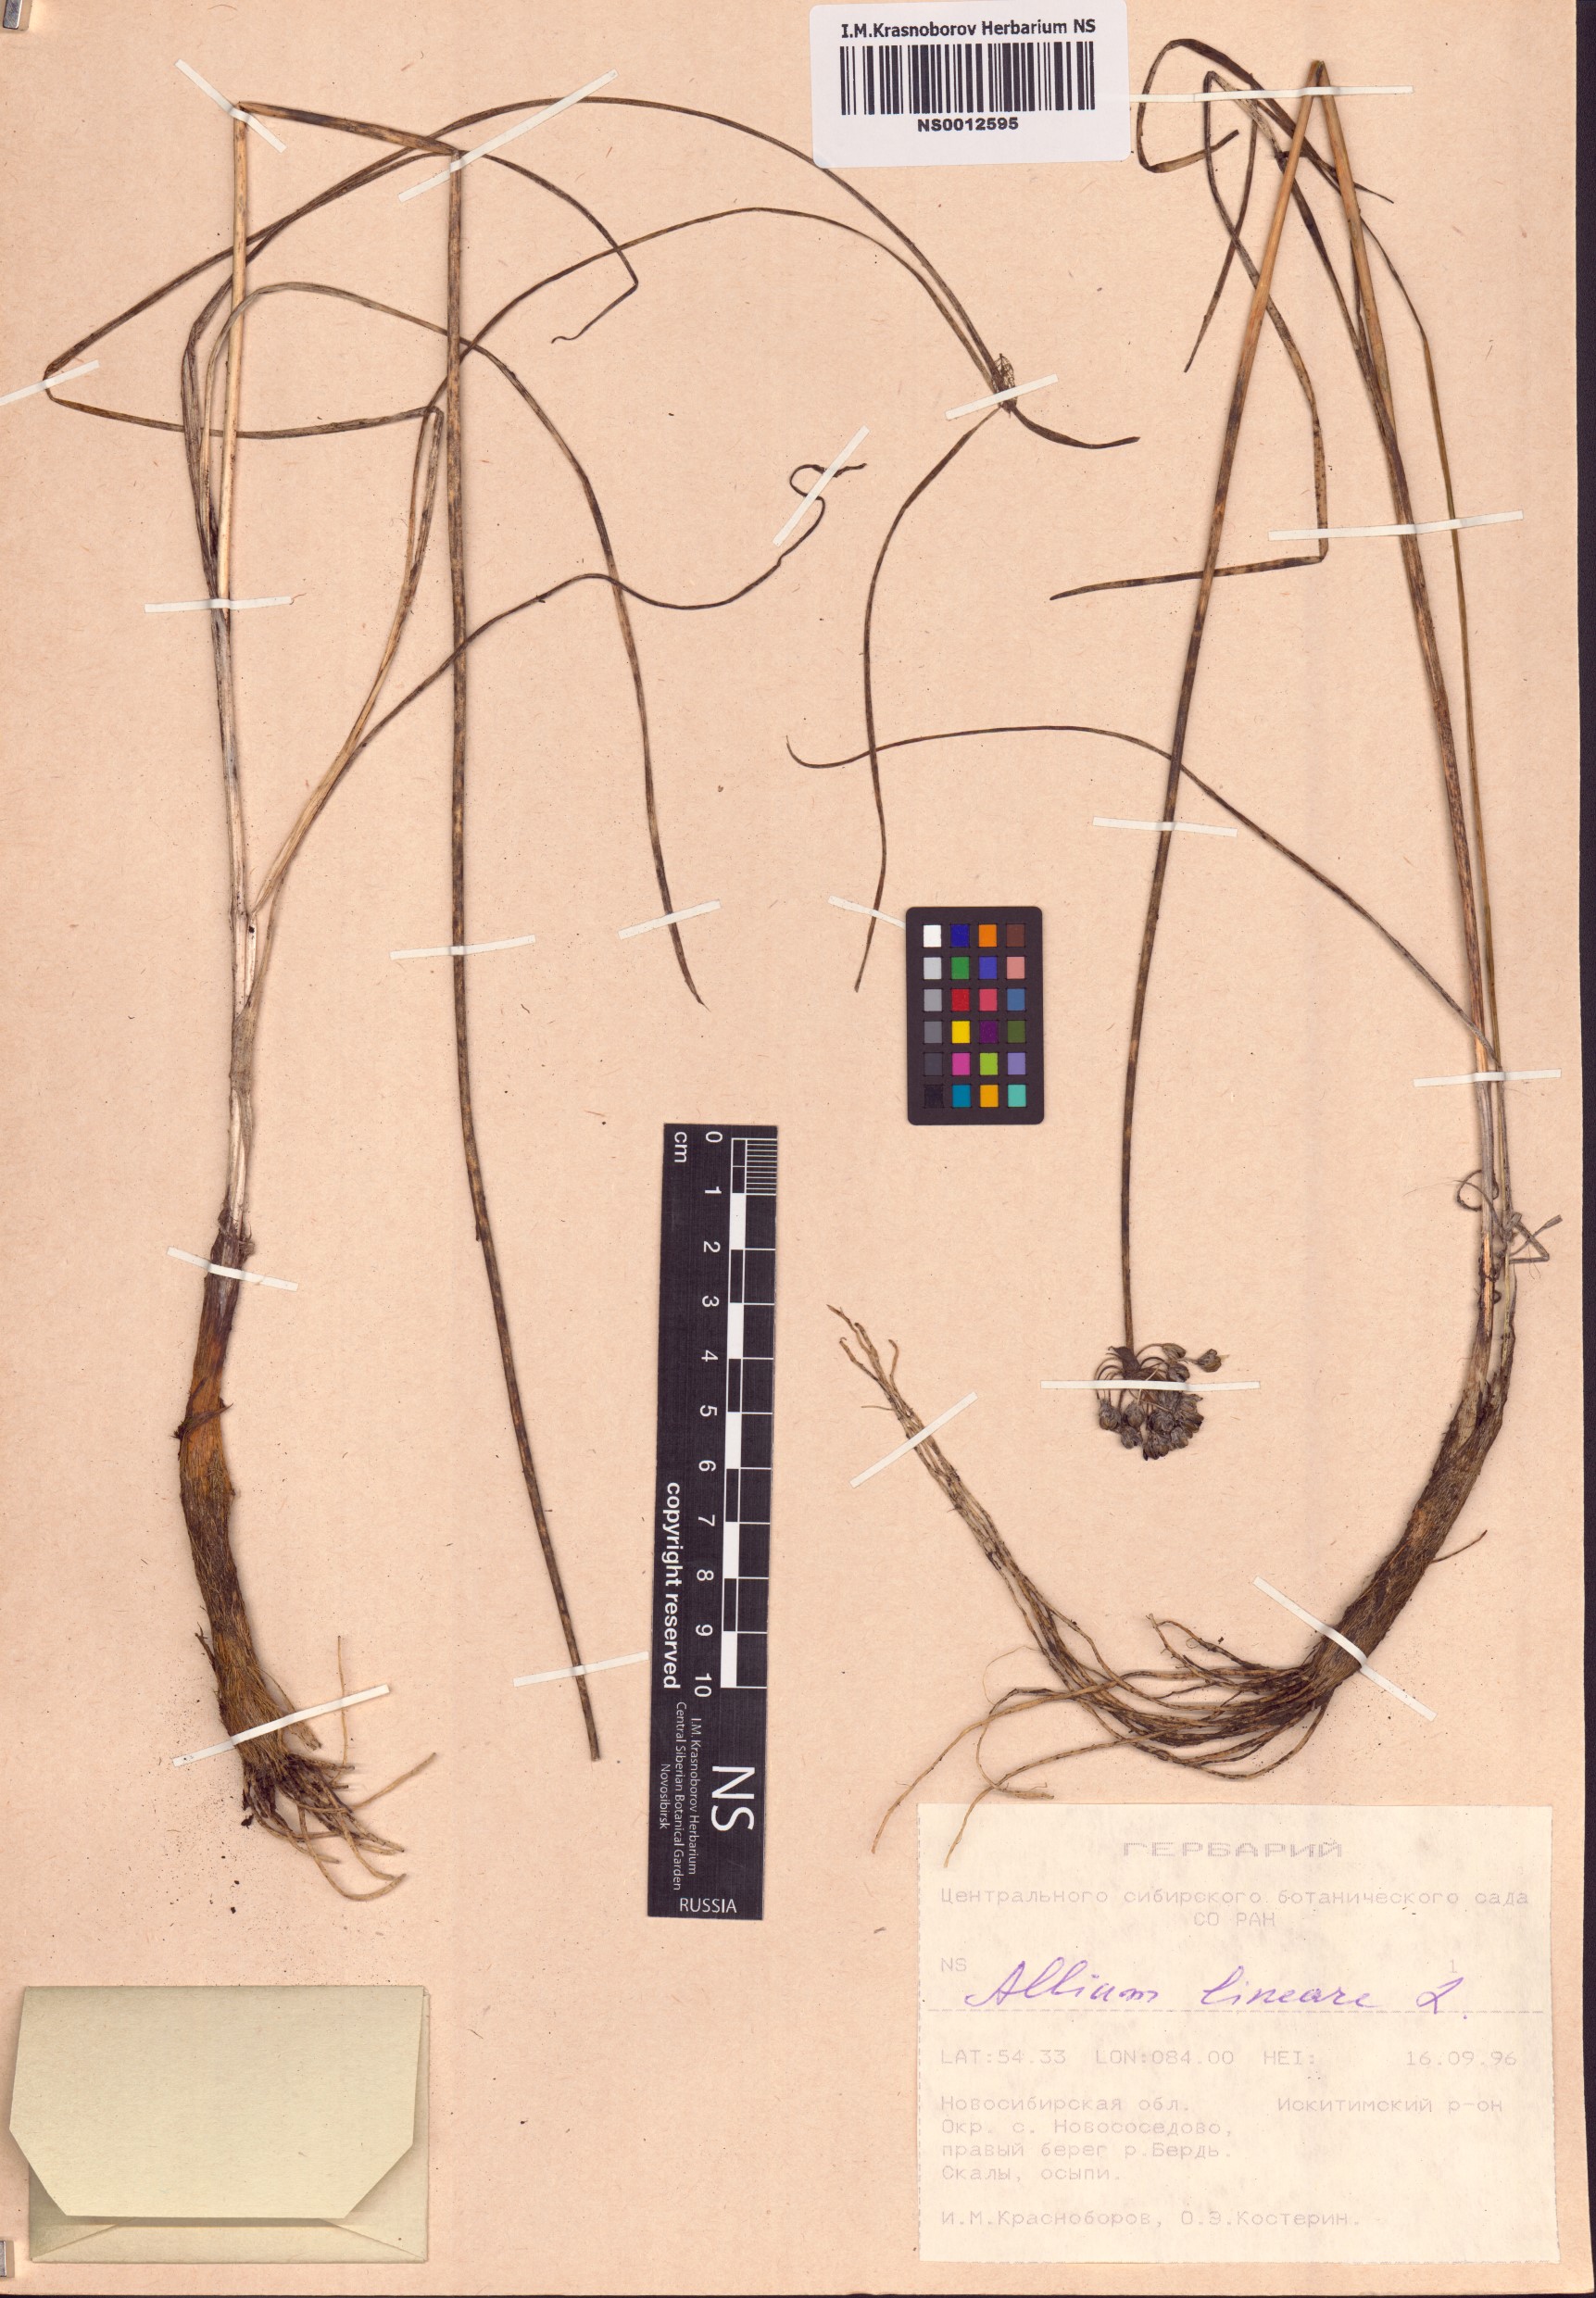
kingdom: Plantae
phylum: Tracheophyta
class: Liliopsida
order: Asparagales
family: Amaryllidaceae
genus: Allium
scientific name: Allium lineare
